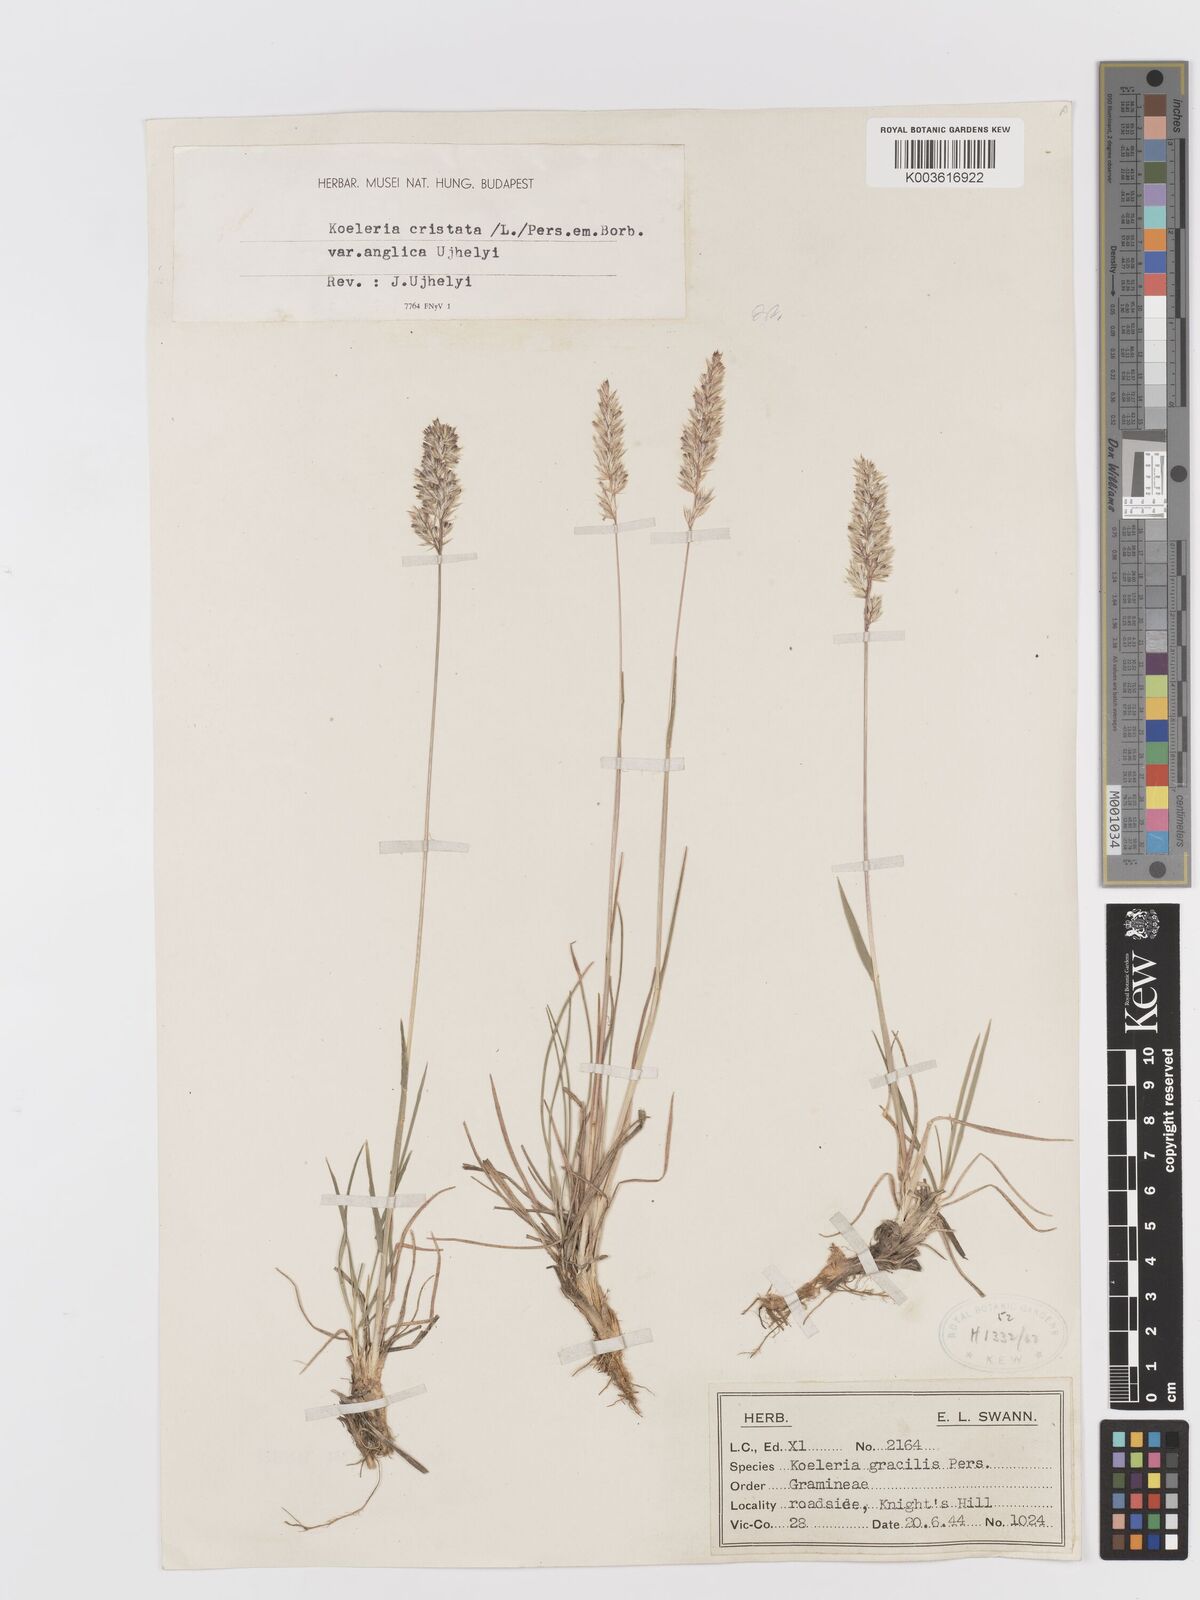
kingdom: Plantae
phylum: Tracheophyta
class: Liliopsida
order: Poales
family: Poaceae
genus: Koeleria
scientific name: Koeleria macrantha
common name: Crested hair-grass
